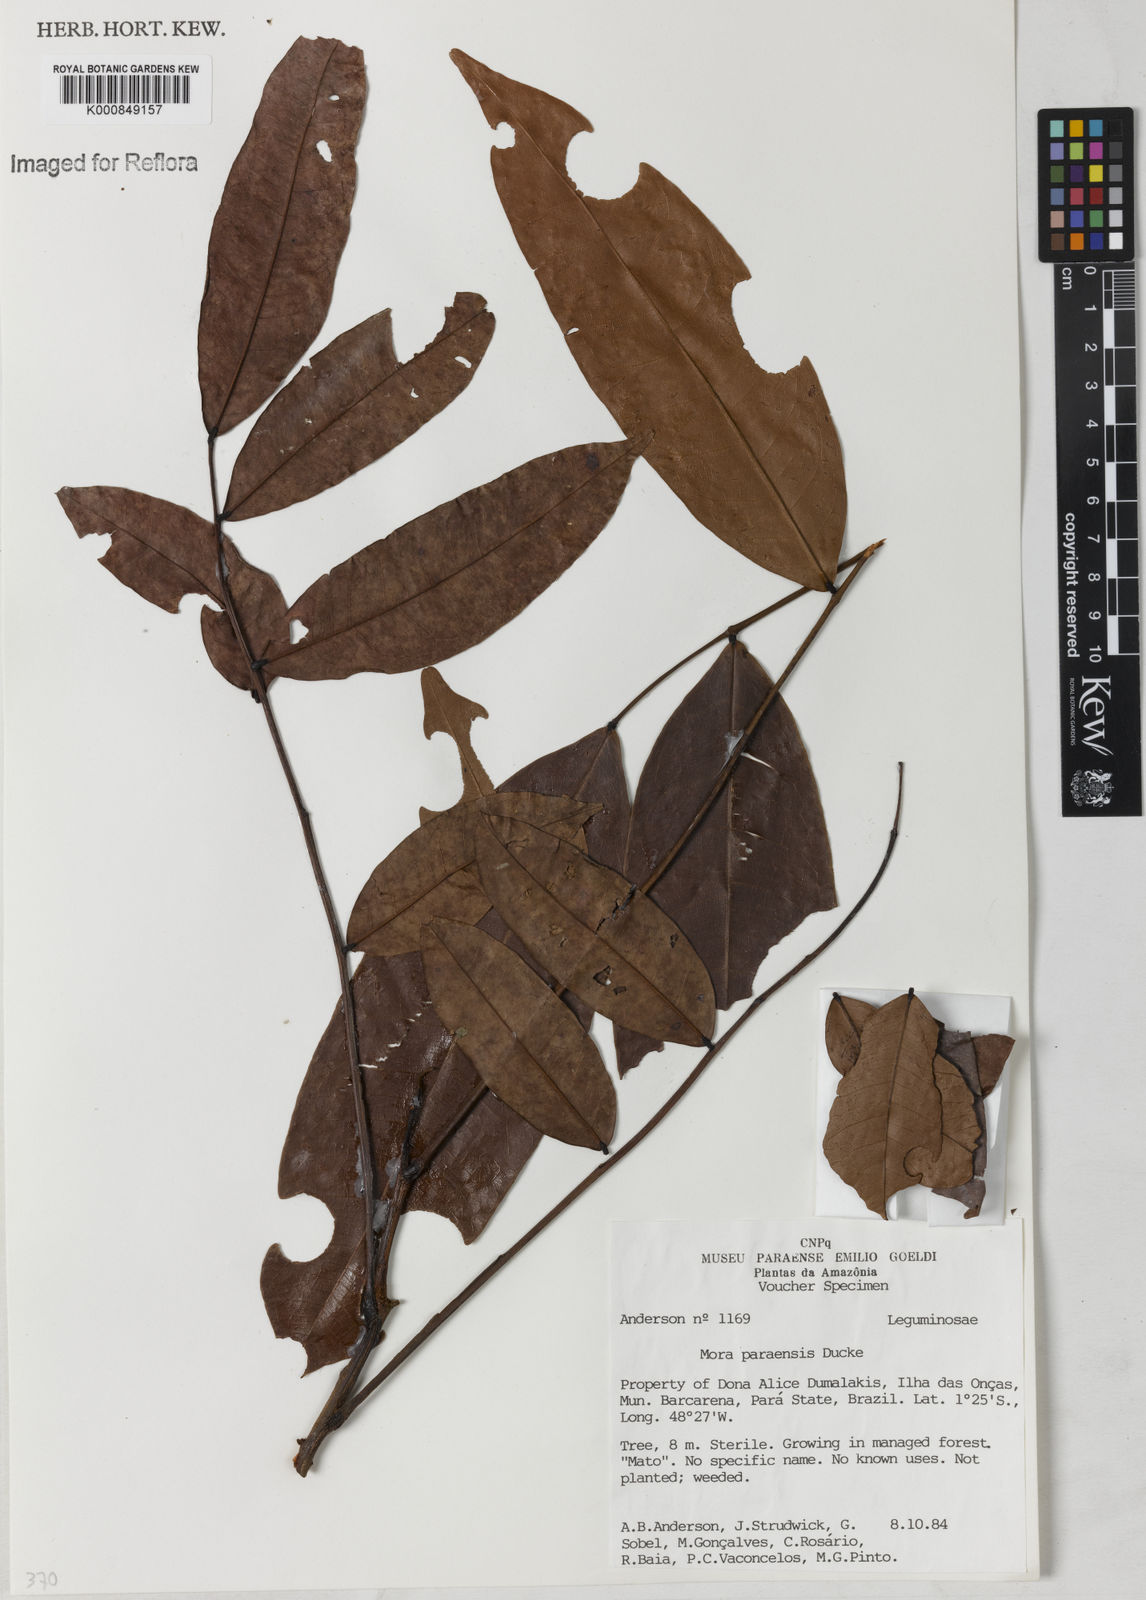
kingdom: Plantae
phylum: Tracheophyta
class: Magnoliopsida
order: Fabales
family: Fabaceae
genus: Mora
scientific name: Mora paraensis
